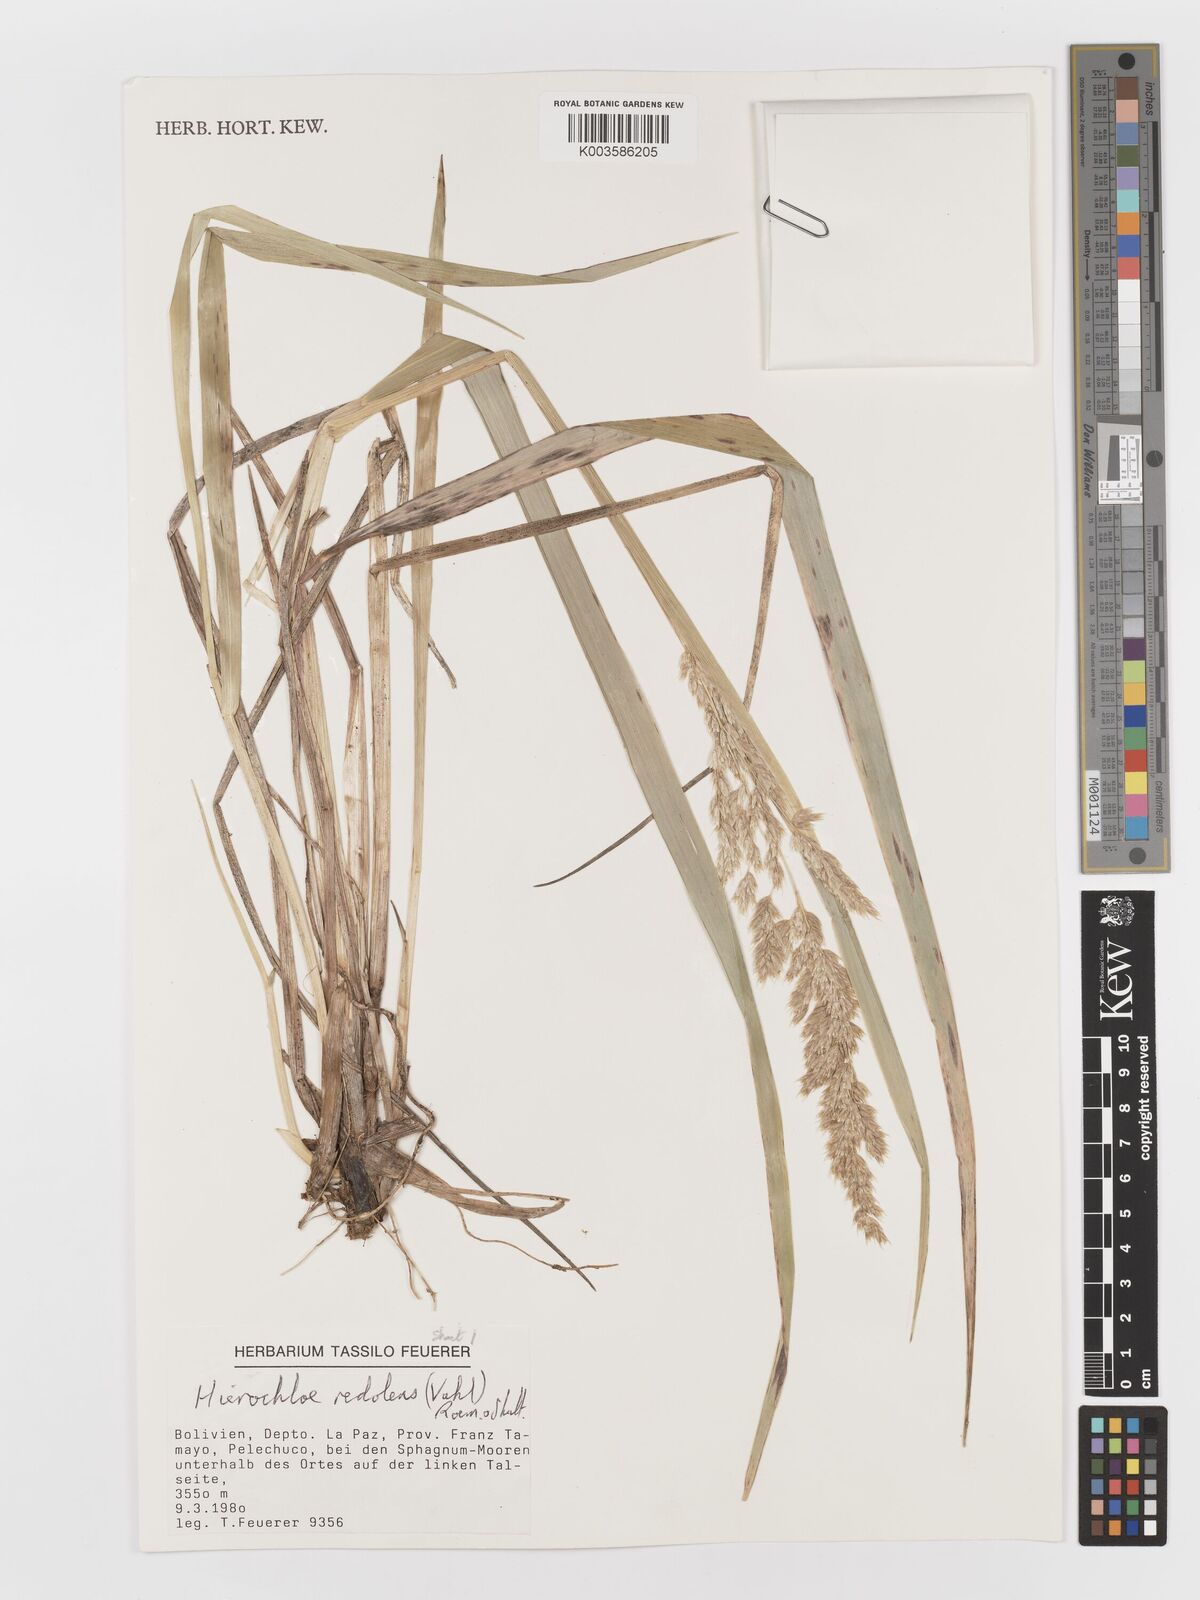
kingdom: Plantae
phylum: Tracheophyta
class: Liliopsida
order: Poales
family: Poaceae
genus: Anthoxanthum
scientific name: Anthoxanthum redolens
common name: Sweet holy grass
